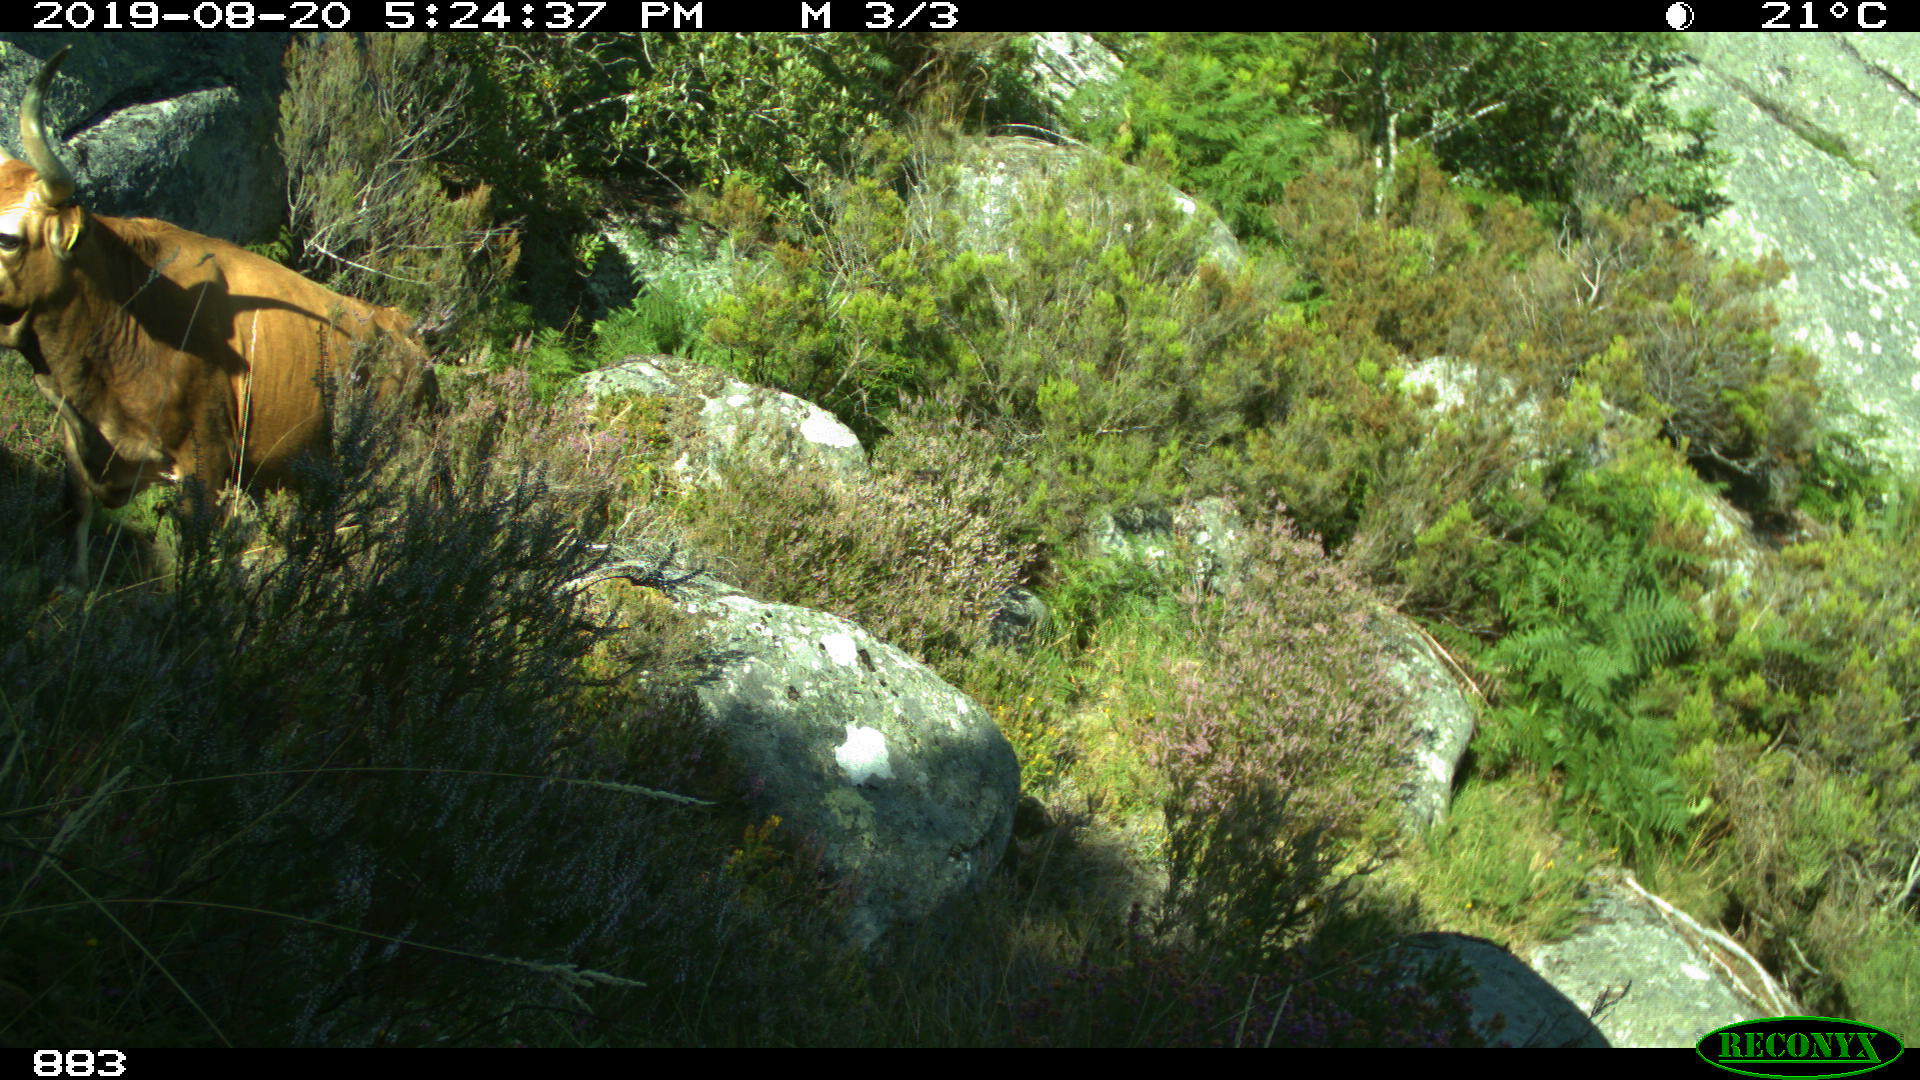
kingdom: Animalia
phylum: Chordata
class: Mammalia
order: Artiodactyla
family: Bovidae
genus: Bos
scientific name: Bos taurus
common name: Domesticated cattle
